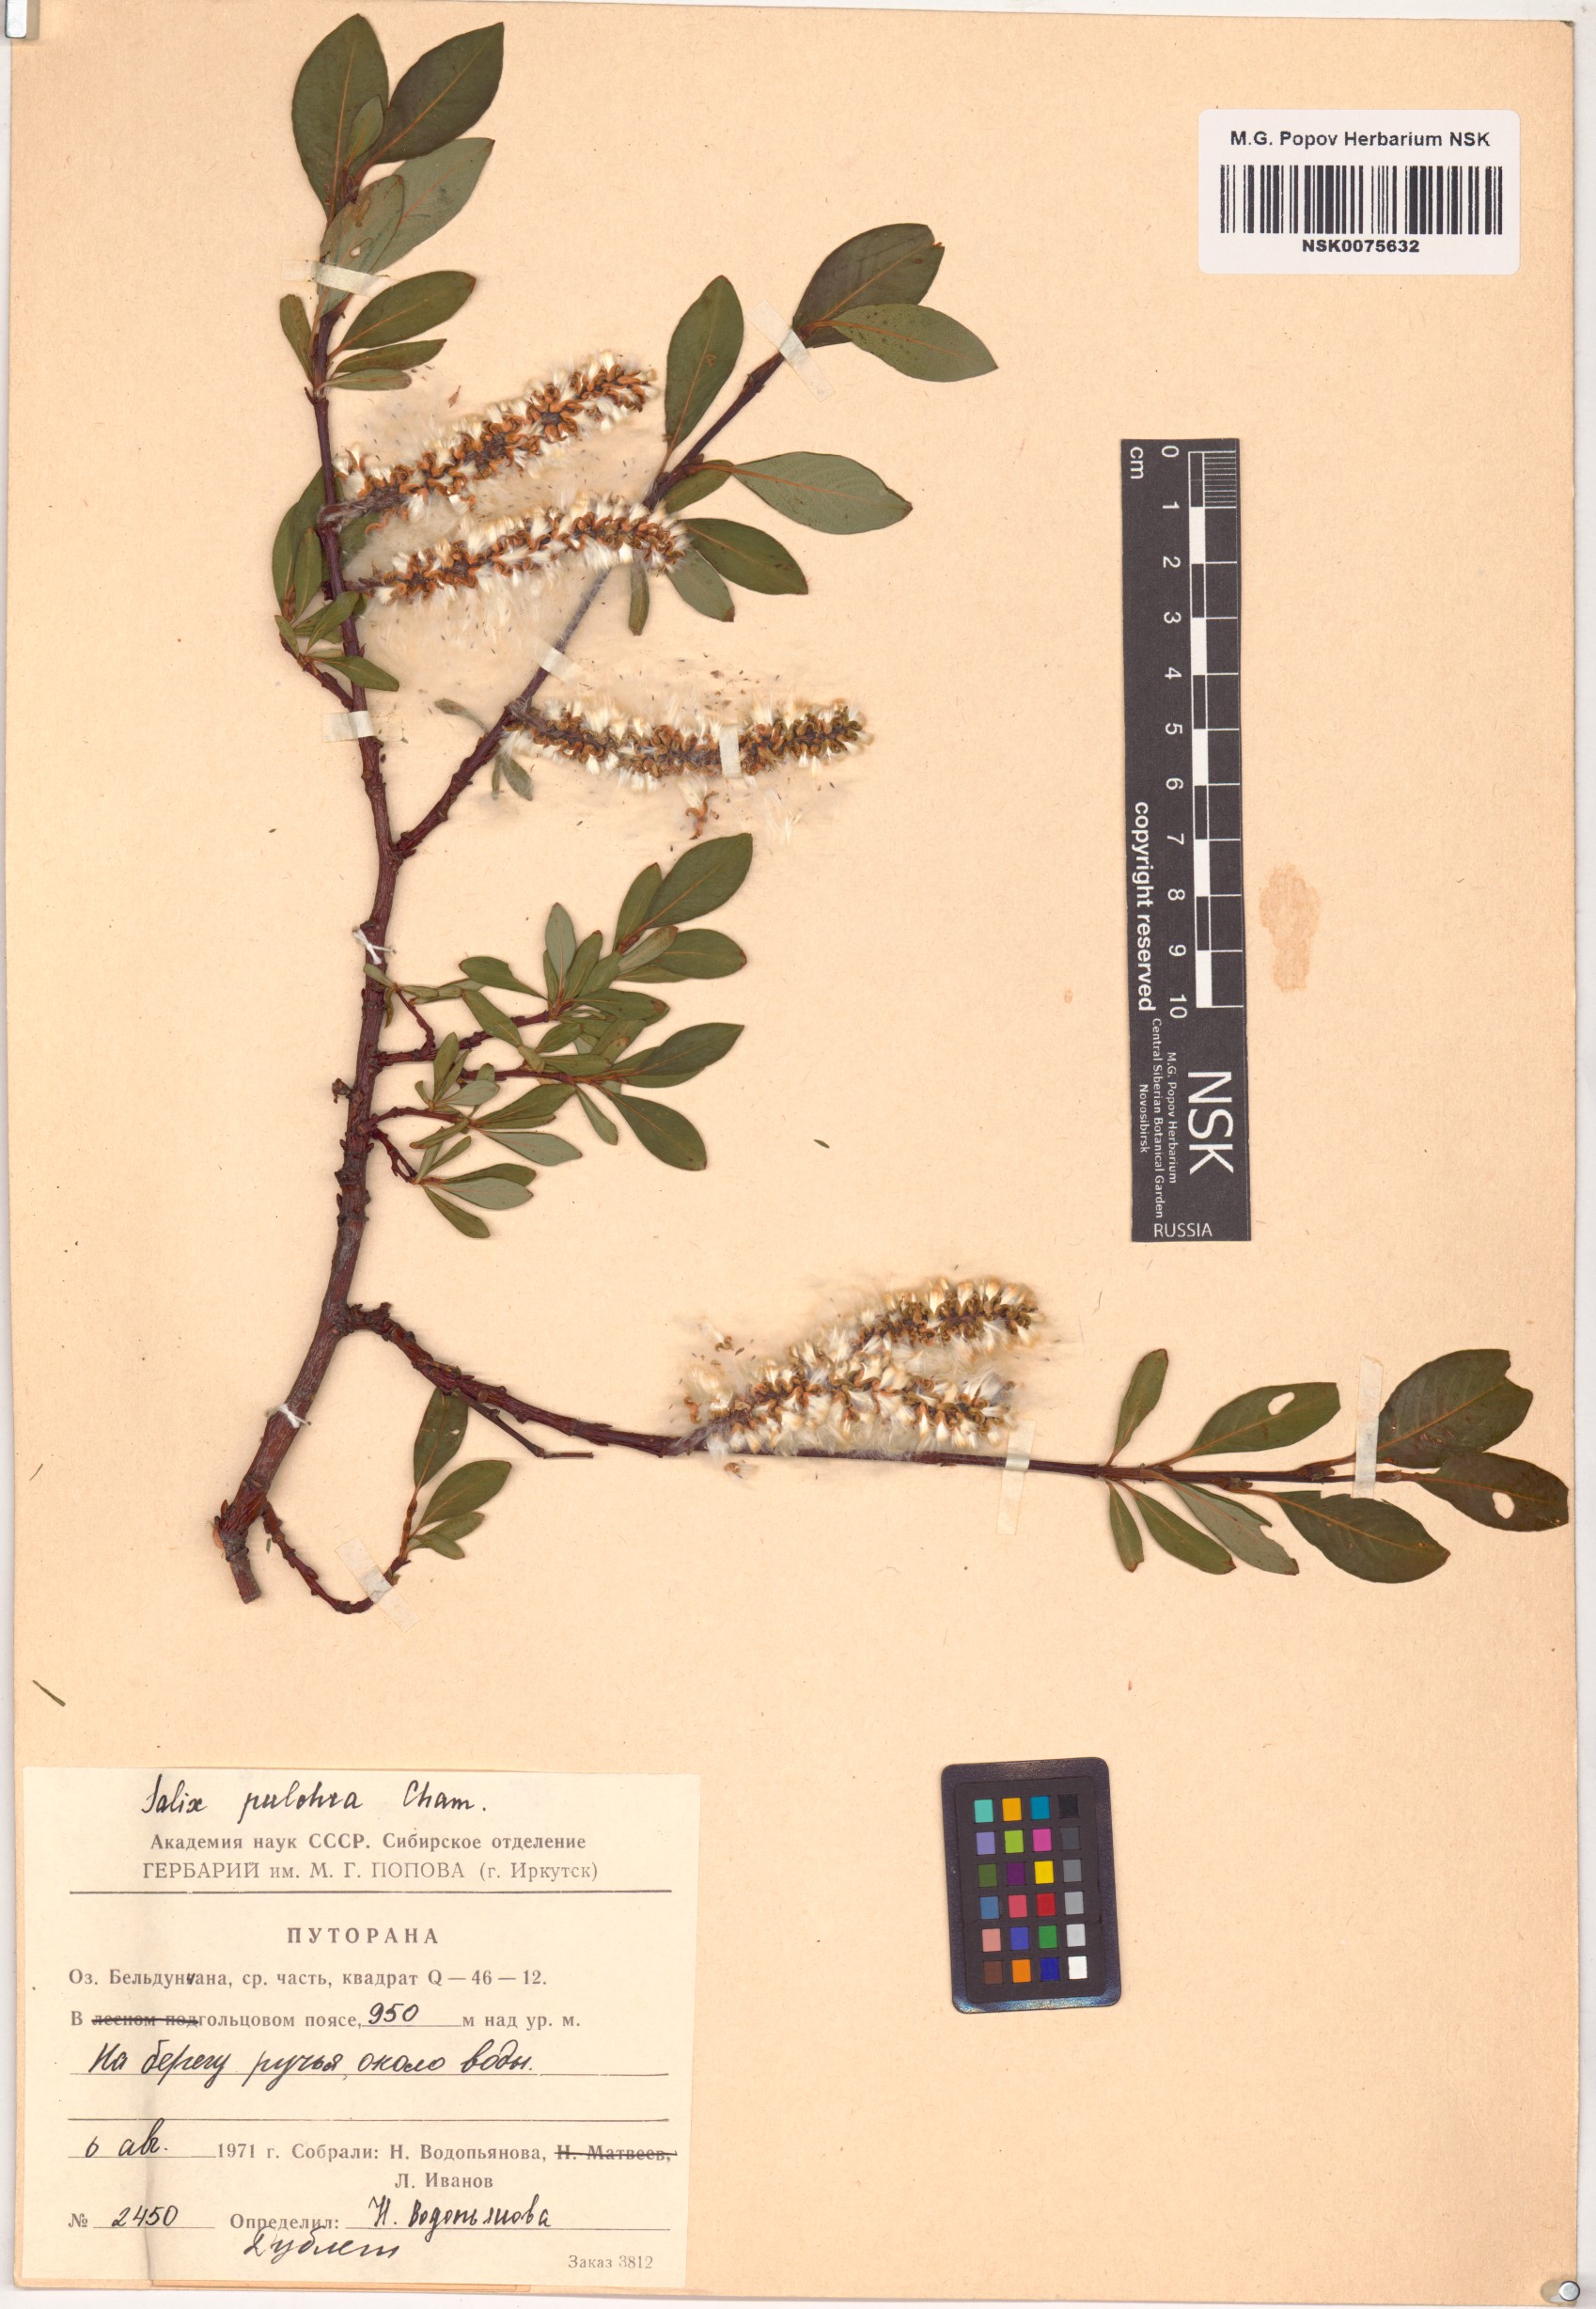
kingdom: Plantae
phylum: Tracheophyta
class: Magnoliopsida
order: Malpighiales
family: Salicaceae
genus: Salix
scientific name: Salix pulchra
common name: Diamond-leaved willow
